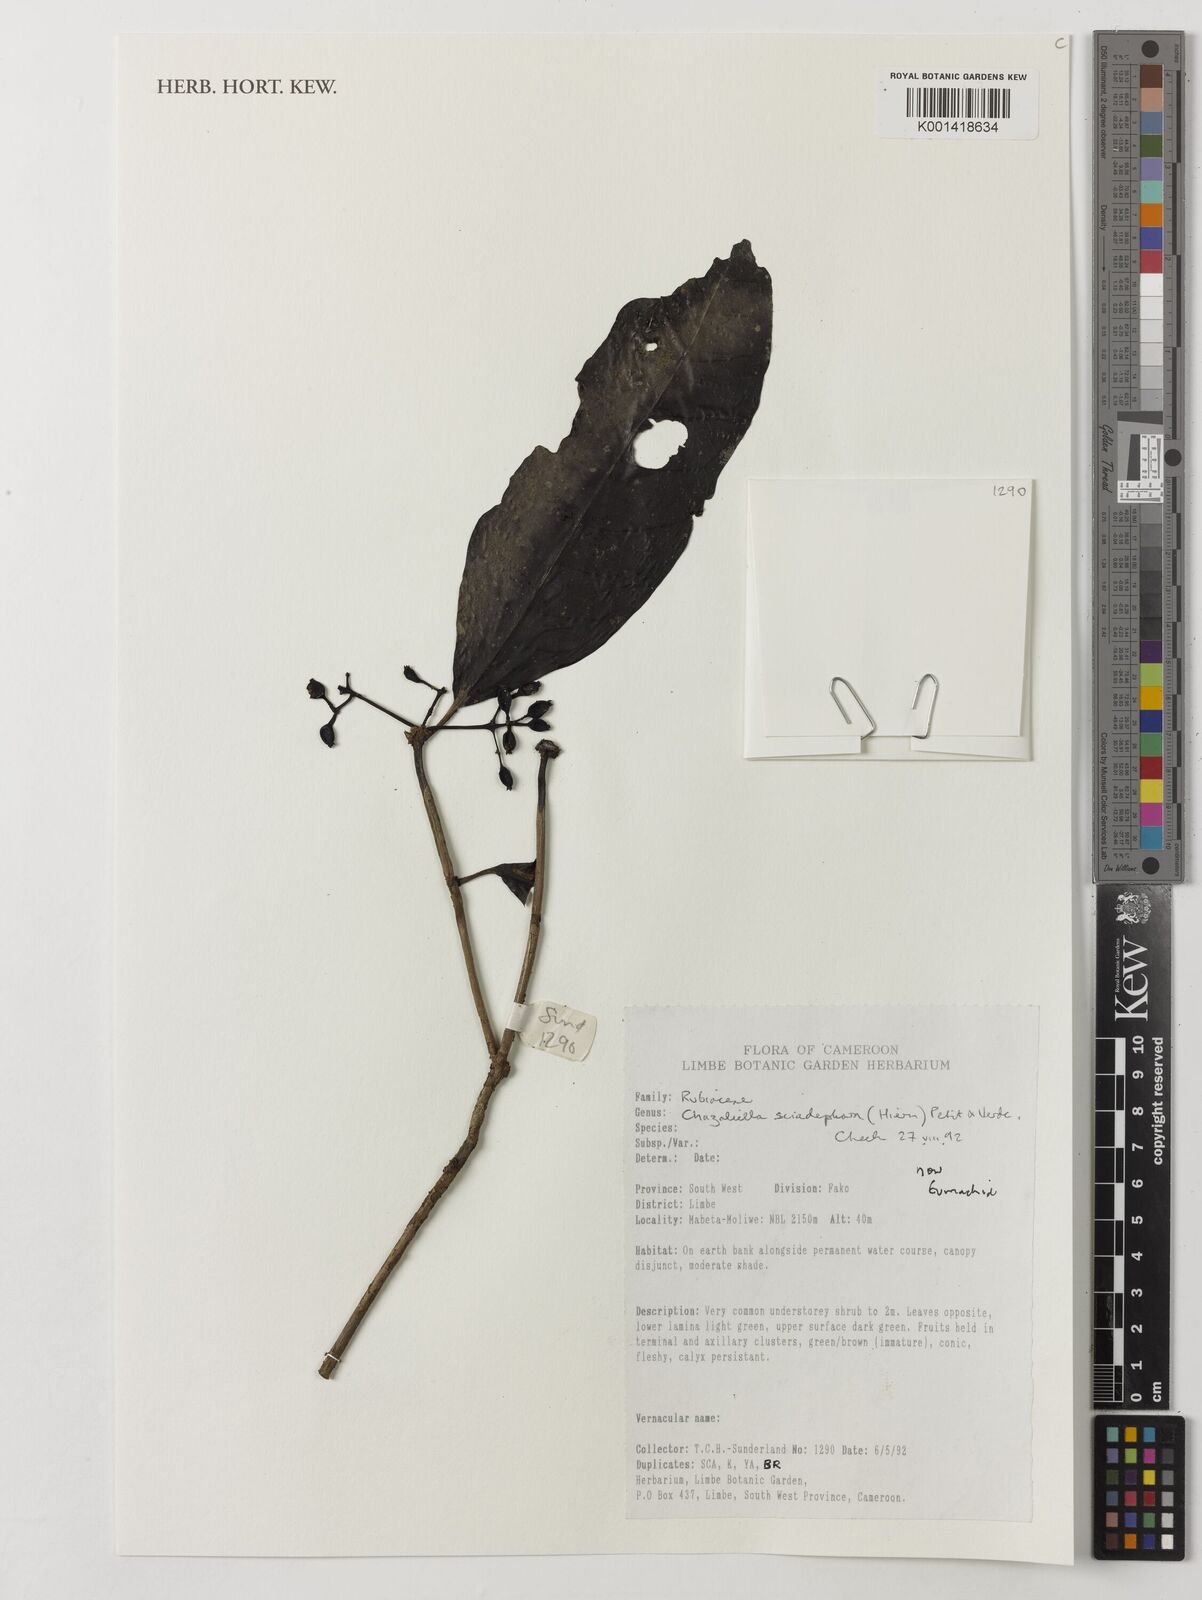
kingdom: Plantae
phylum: Tracheophyta
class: Magnoliopsida
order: Gentianales
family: Rubiaceae
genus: Eumachia
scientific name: Eumachia sciadephora
